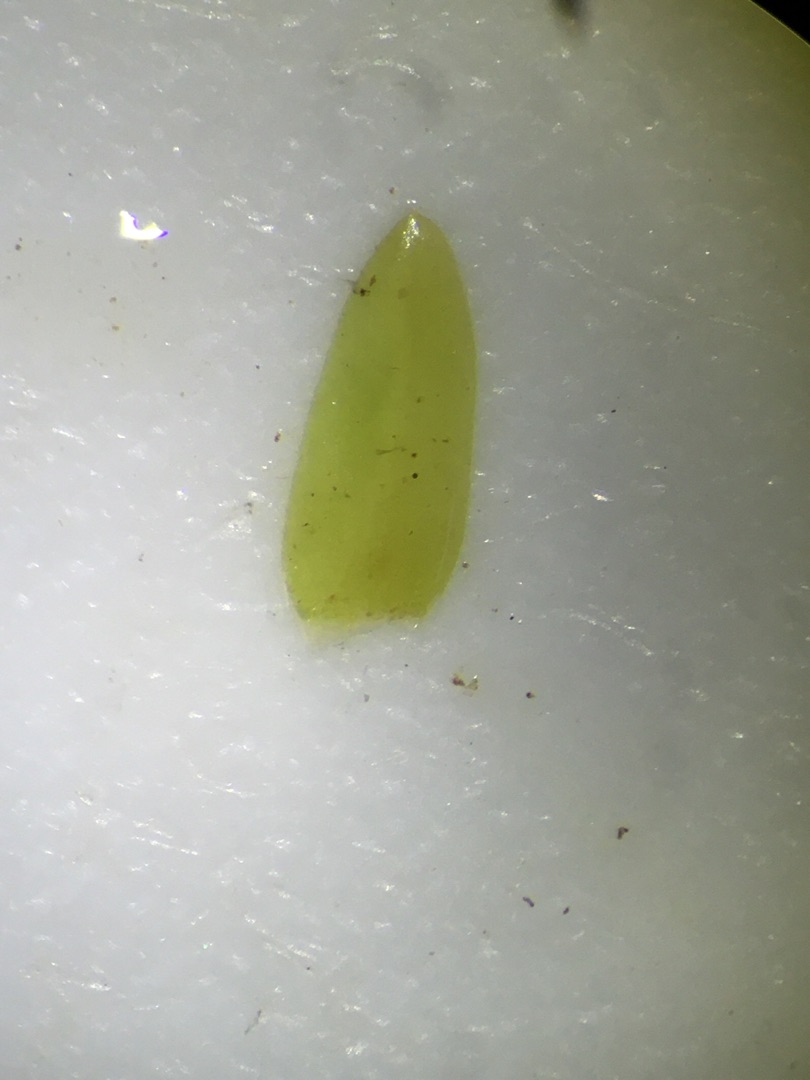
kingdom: Plantae
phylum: Bryophyta
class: Bryopsida
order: Hypnales
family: Pylaisiaceae
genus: Calliergonella
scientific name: Calliergonella cuspidata
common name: Spids spydmos
